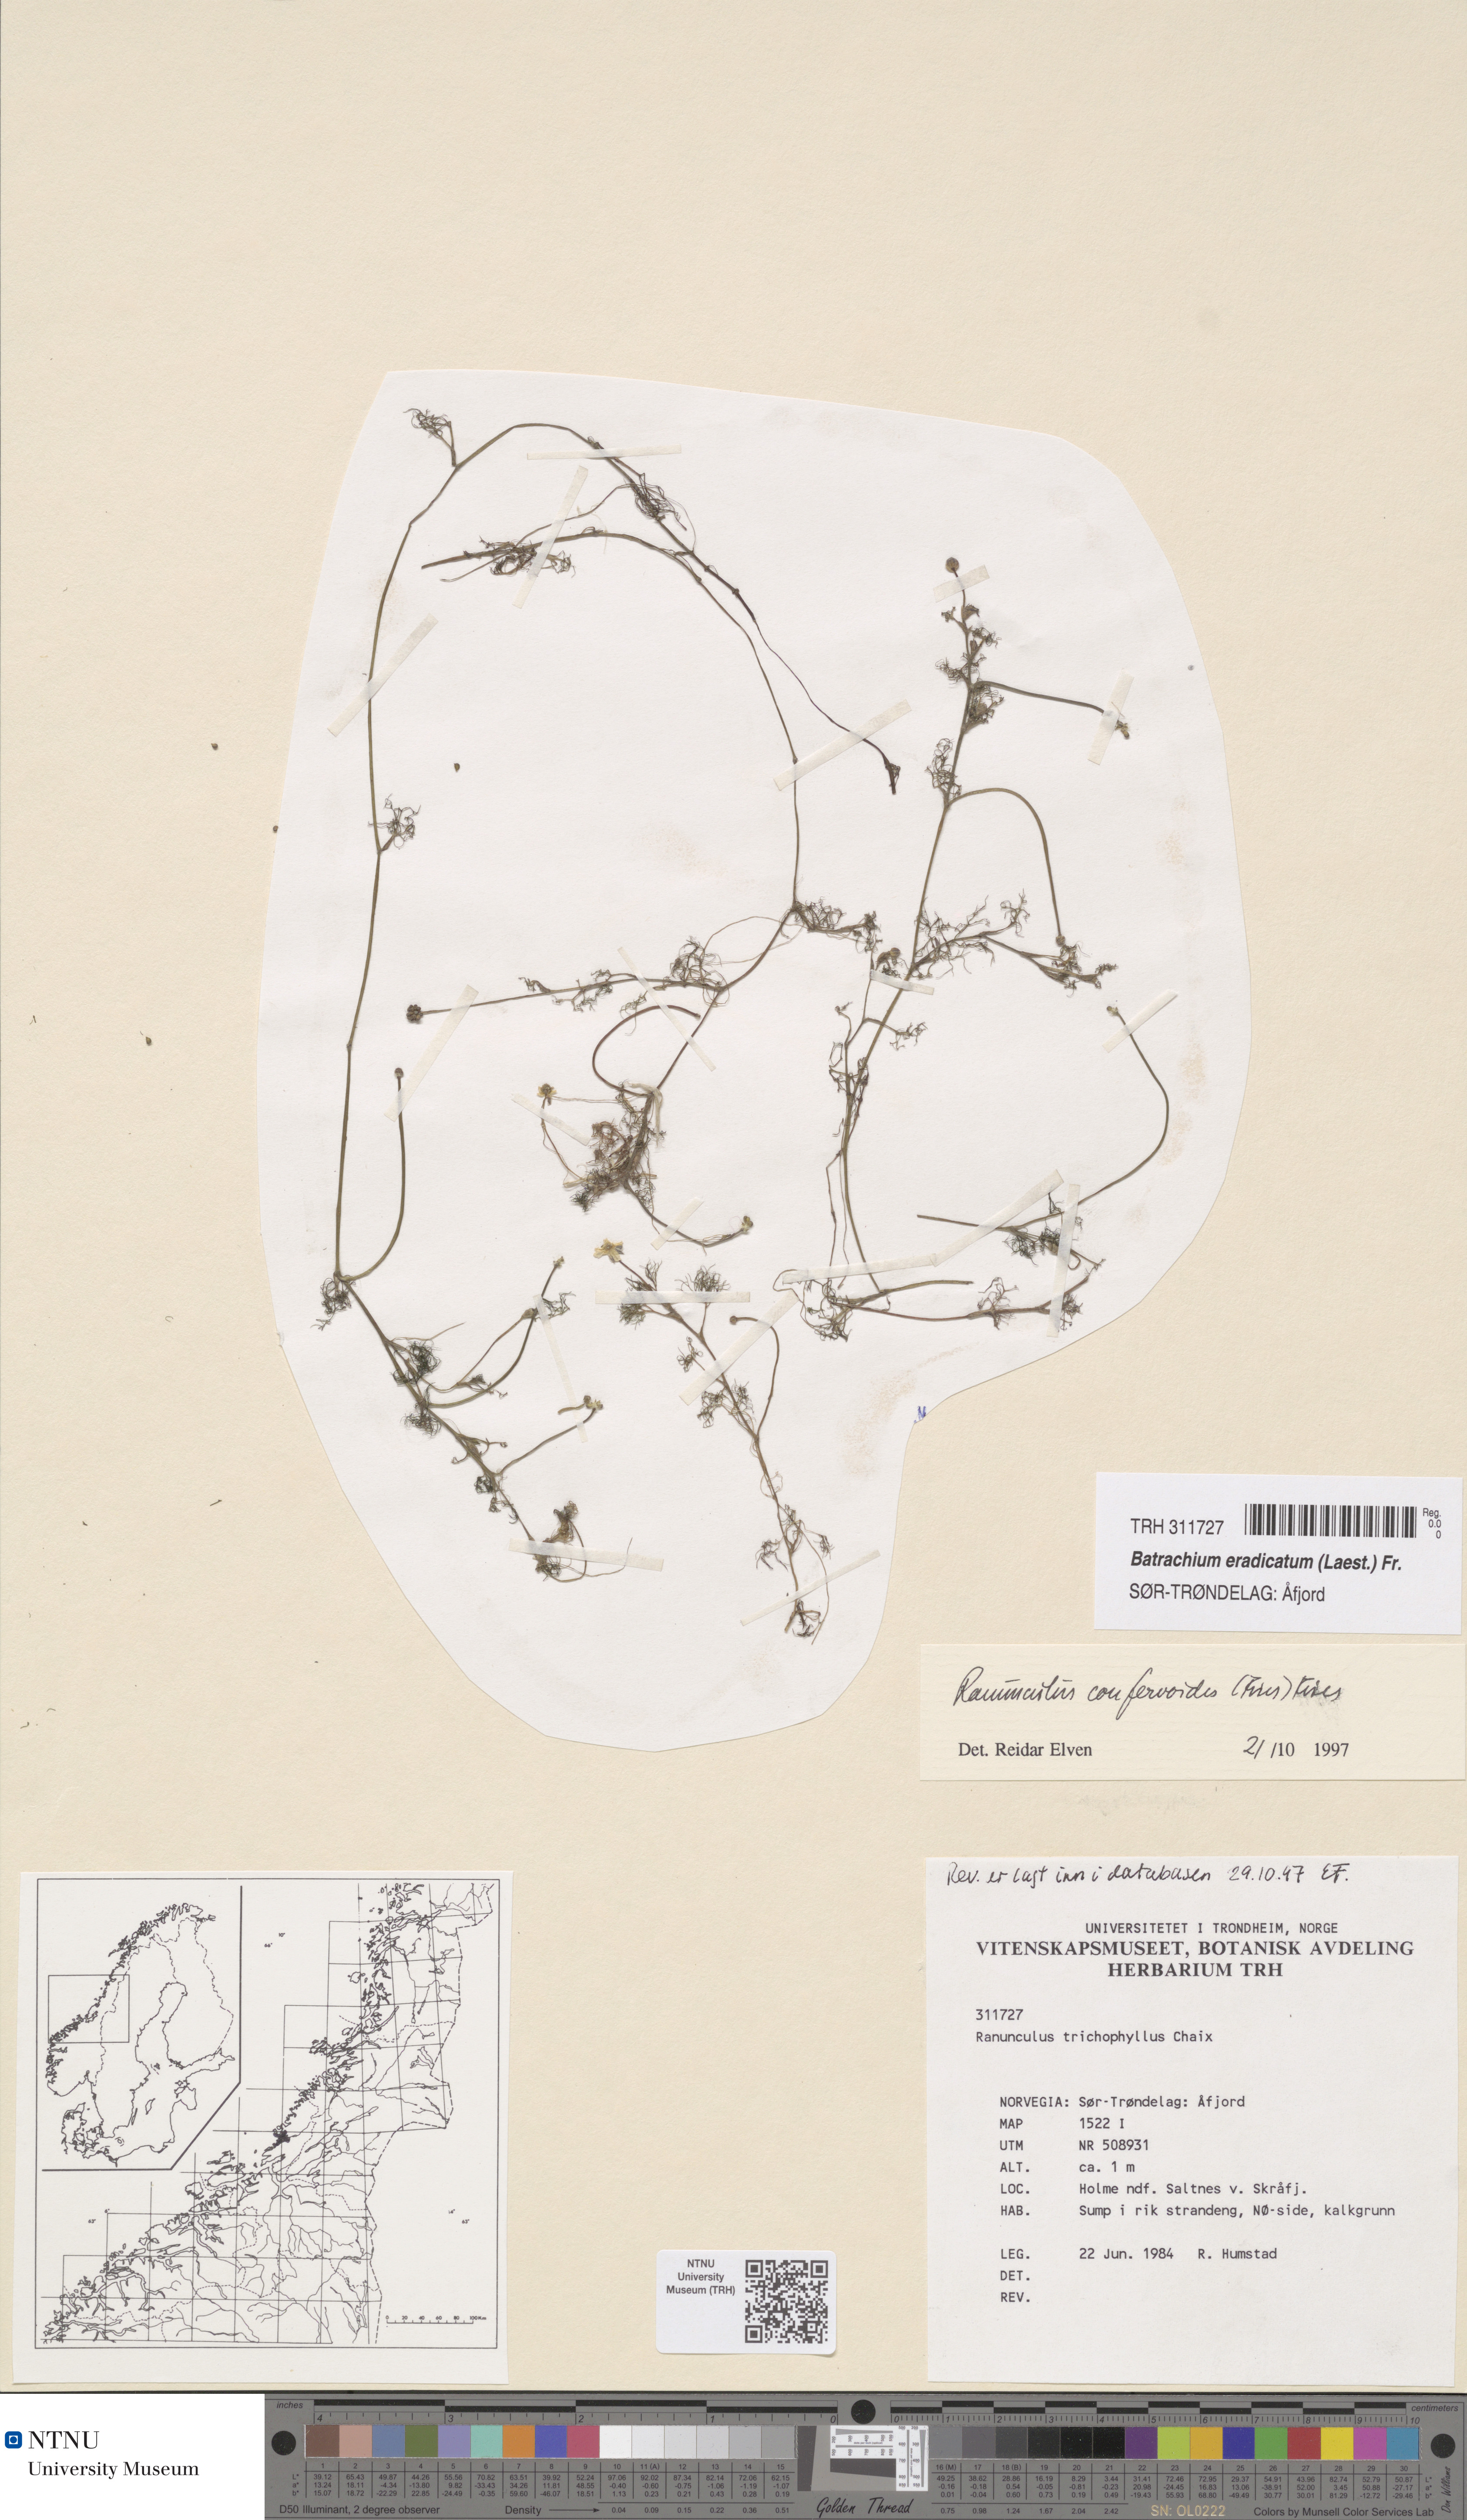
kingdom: Plantae
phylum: Tracheophyta
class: Magnoliopsida
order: Ranunculales
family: Ranunculaceae
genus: Ranunculus
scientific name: Ranunculus confervoides
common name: Delicate buttercup
